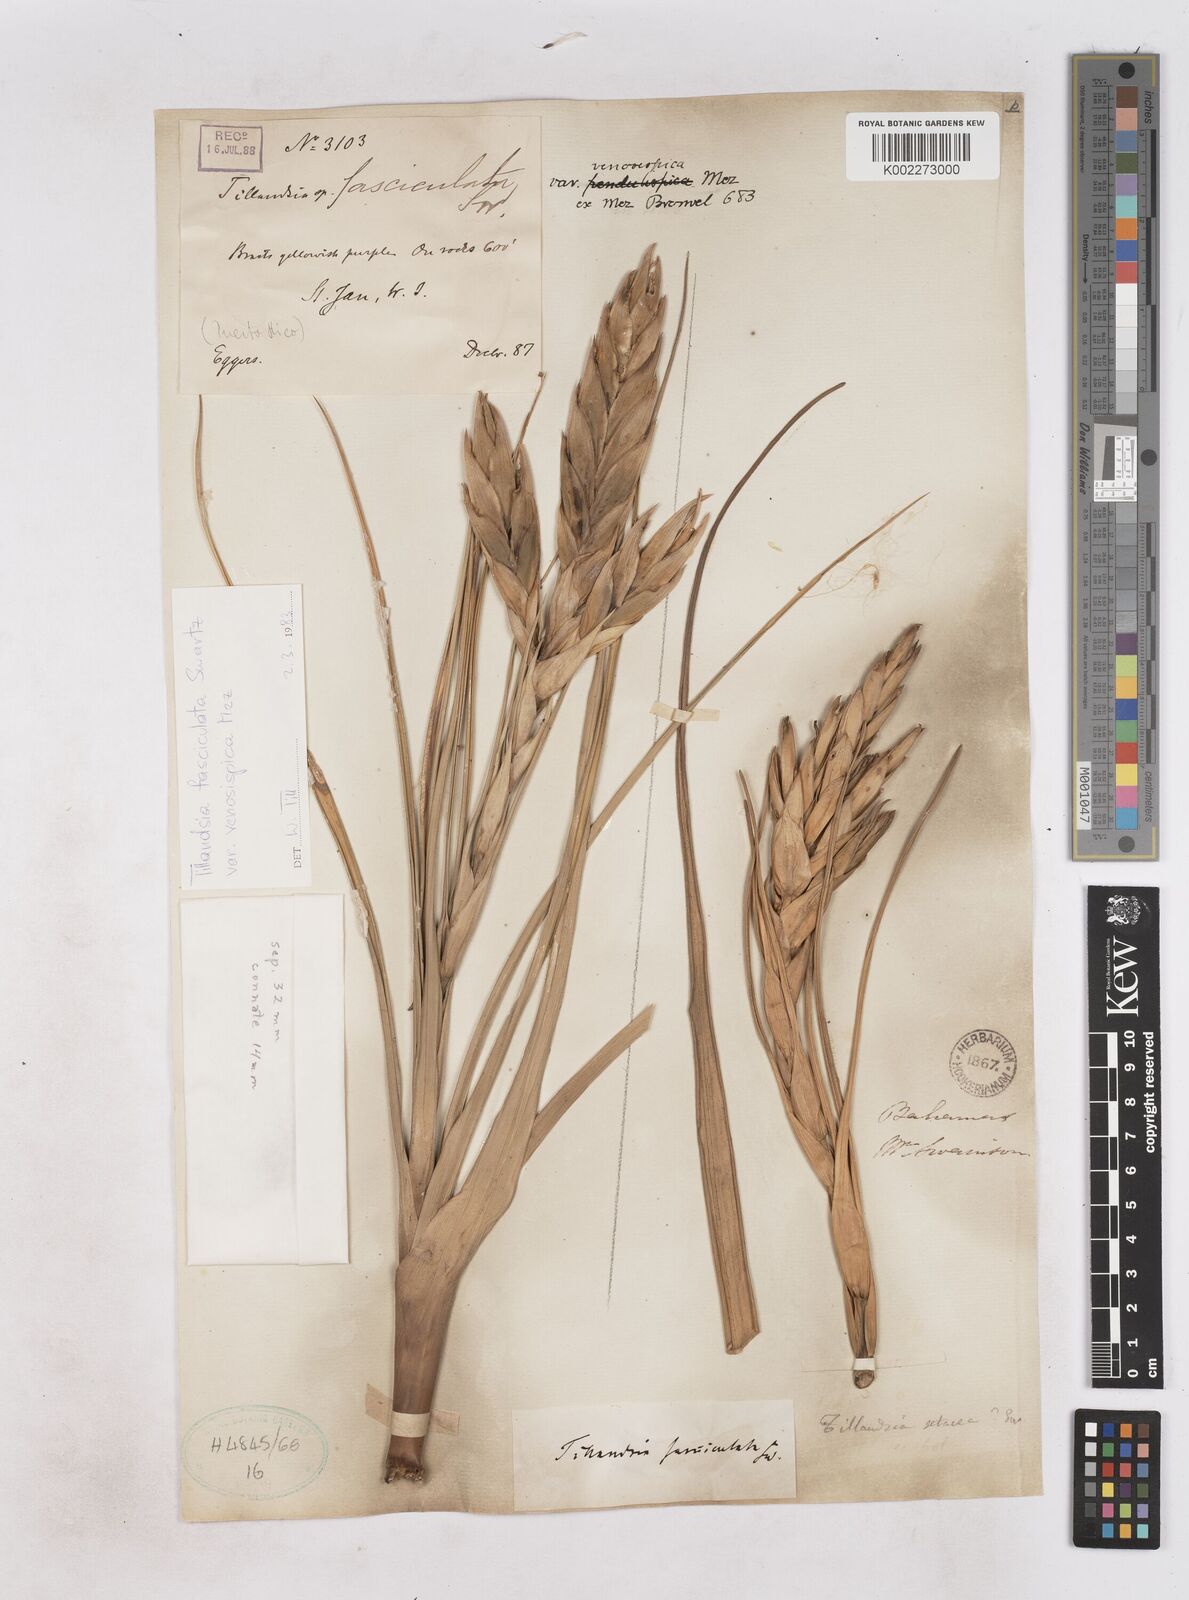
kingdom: Plantae
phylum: Tracheophyta
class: Liliopsida
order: Poales
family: Bromeliaceae
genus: Tillandsia
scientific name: Tillandsia compressa
